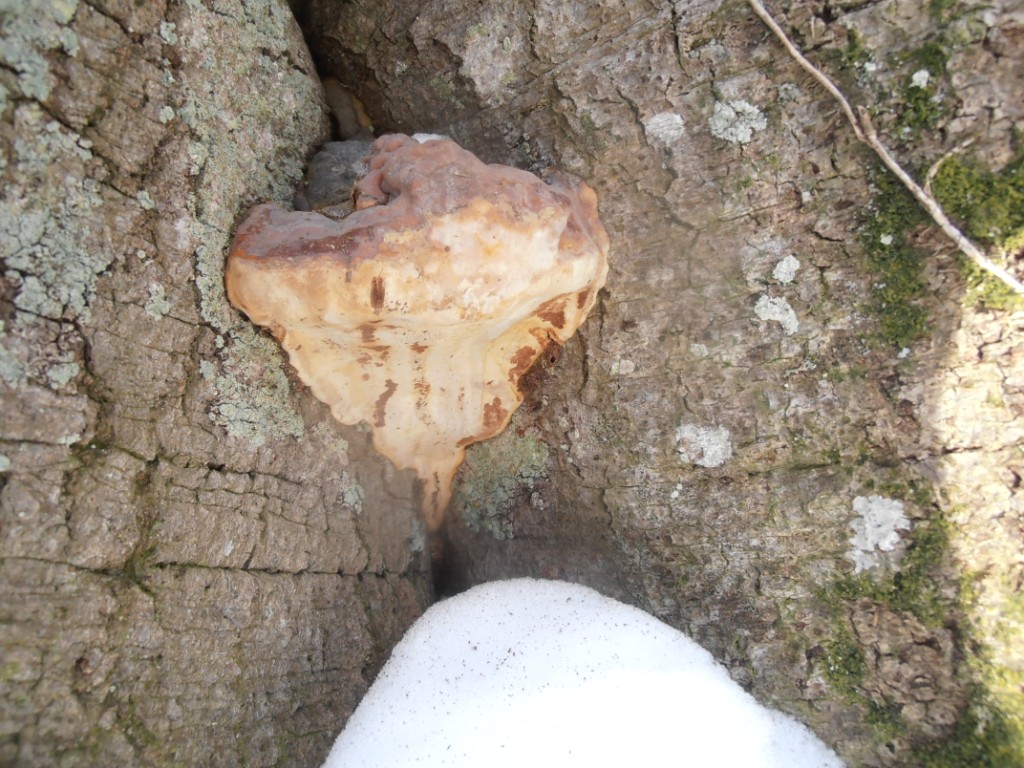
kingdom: Fungi
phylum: Basidiomycota
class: Agaricomycetes
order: Polyporales
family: Polyporaceae
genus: Ganoderma
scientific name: Ganoderma pfeifferi
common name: kobberrød lakporesvamp
